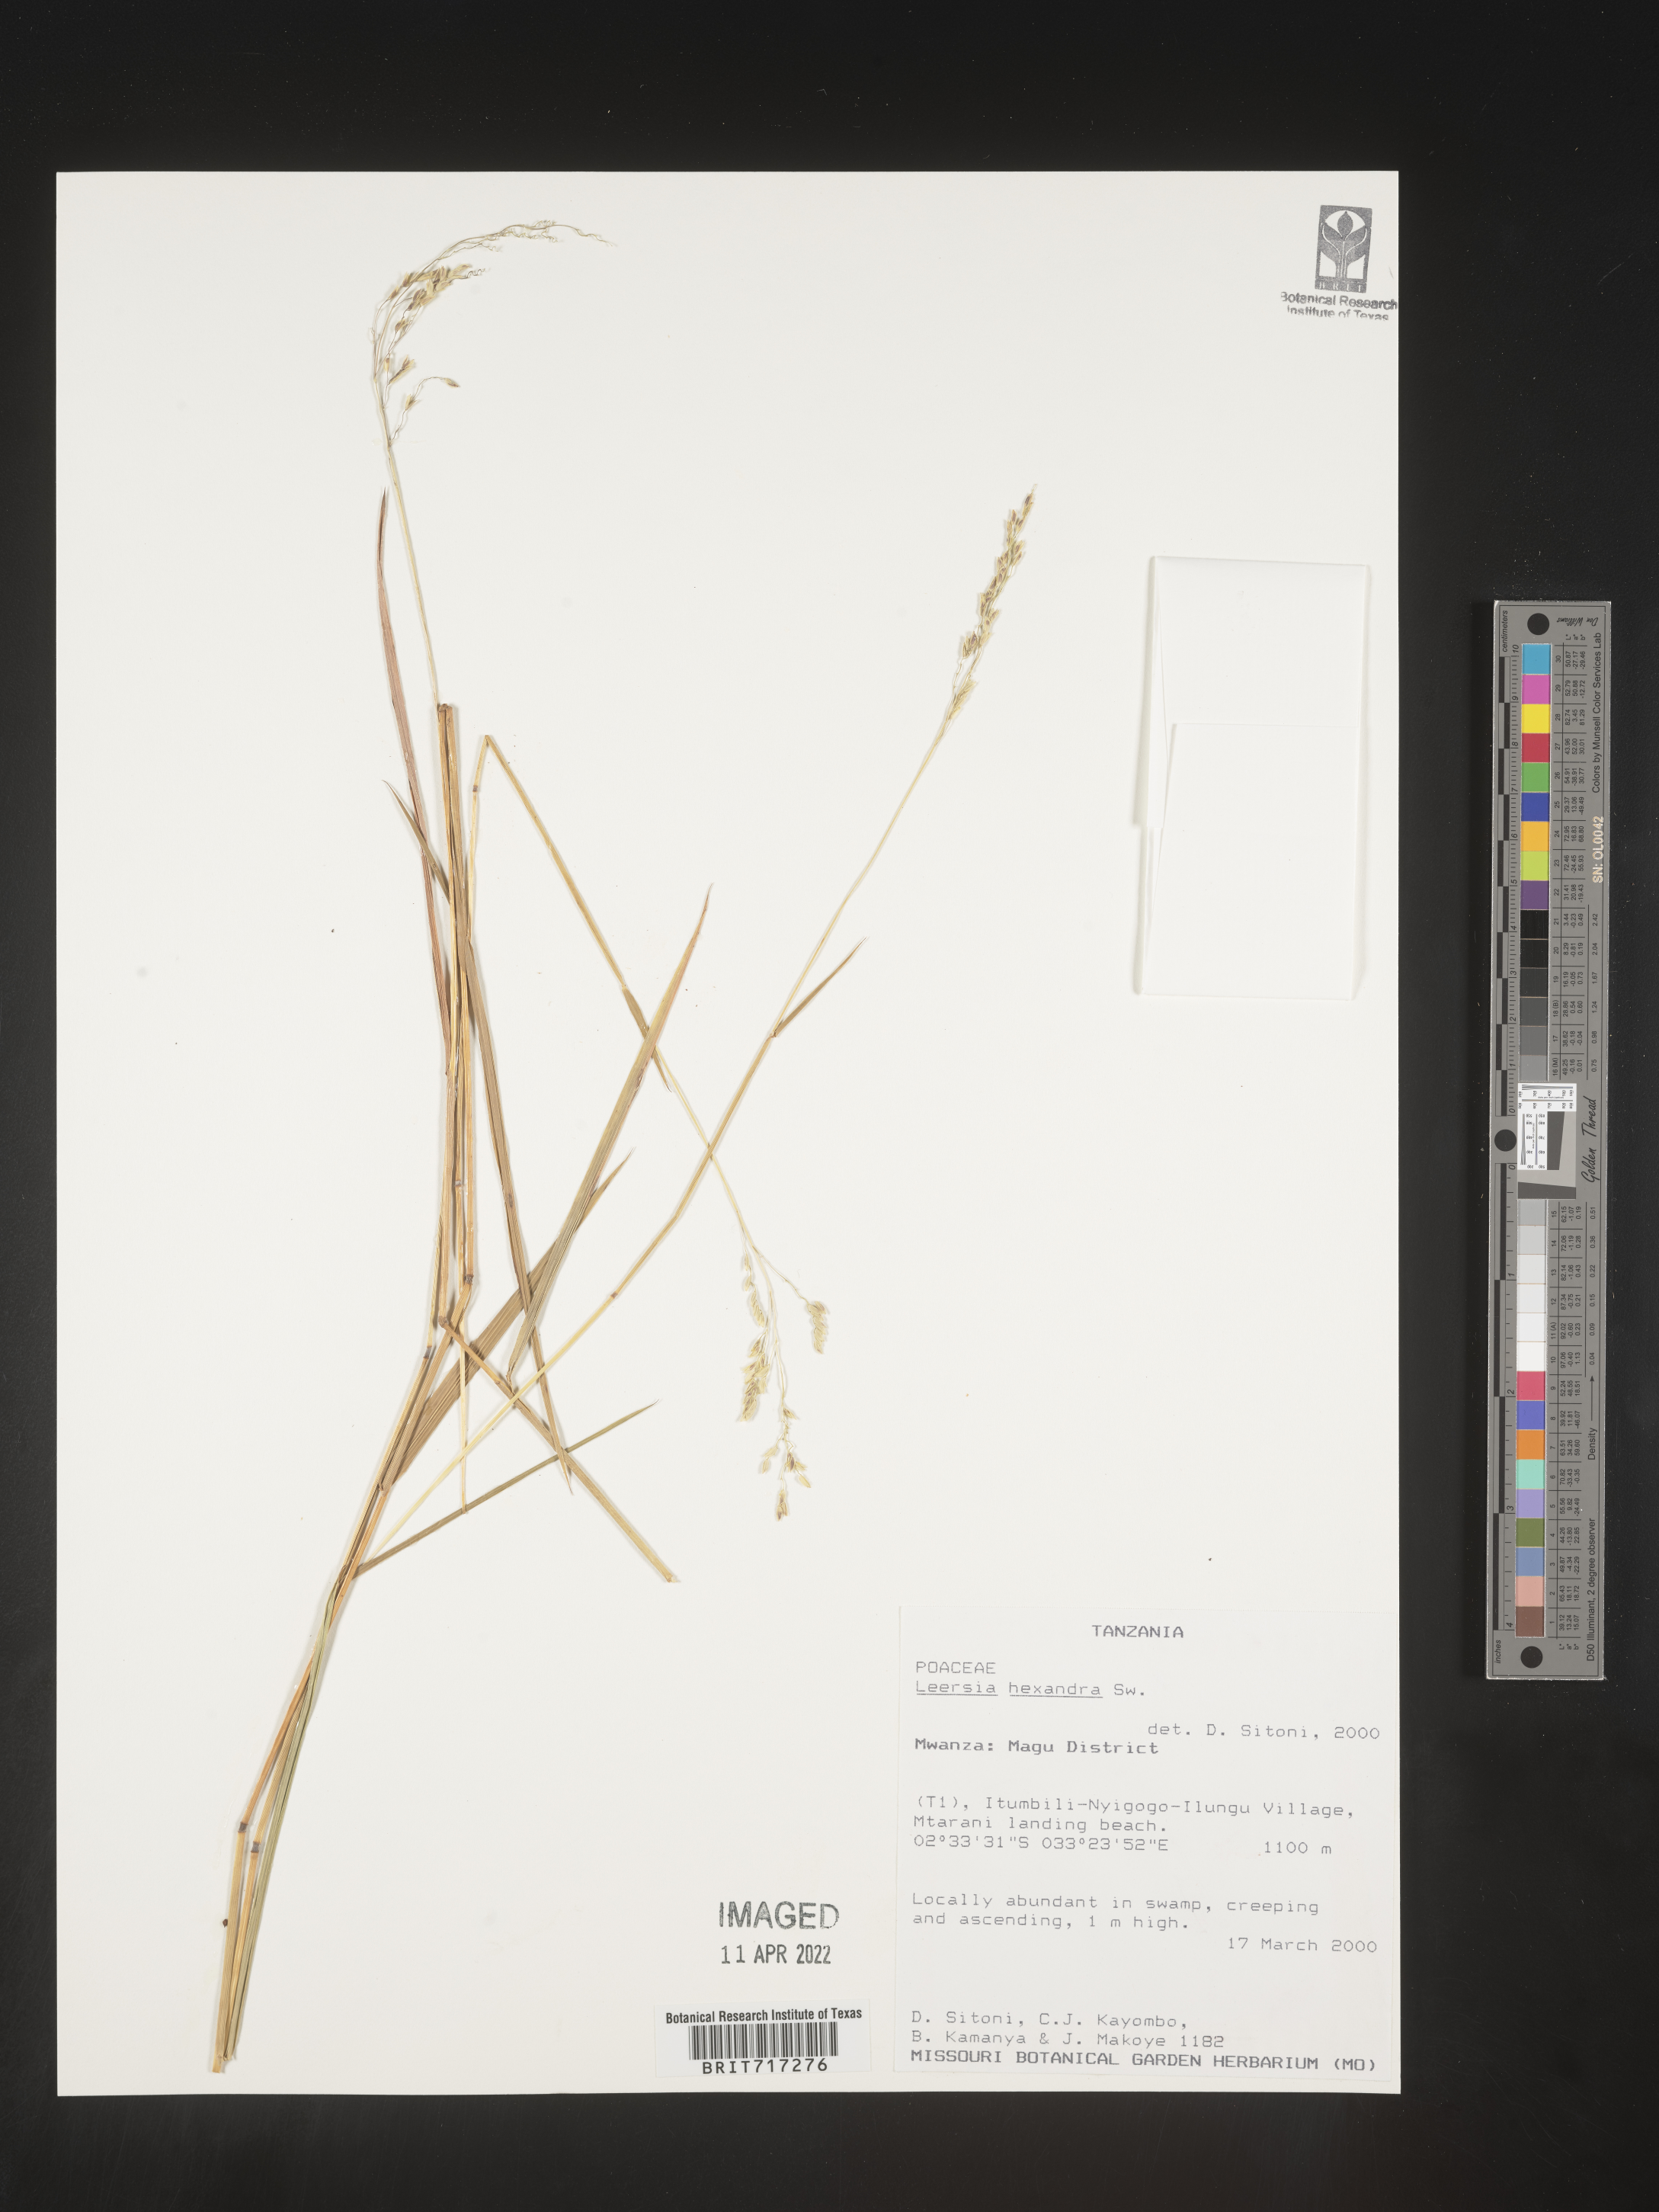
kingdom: Plantae
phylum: Tracheophyta
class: Liliopsida
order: Poales
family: Poaceae
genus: Leersia
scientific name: Leersia
